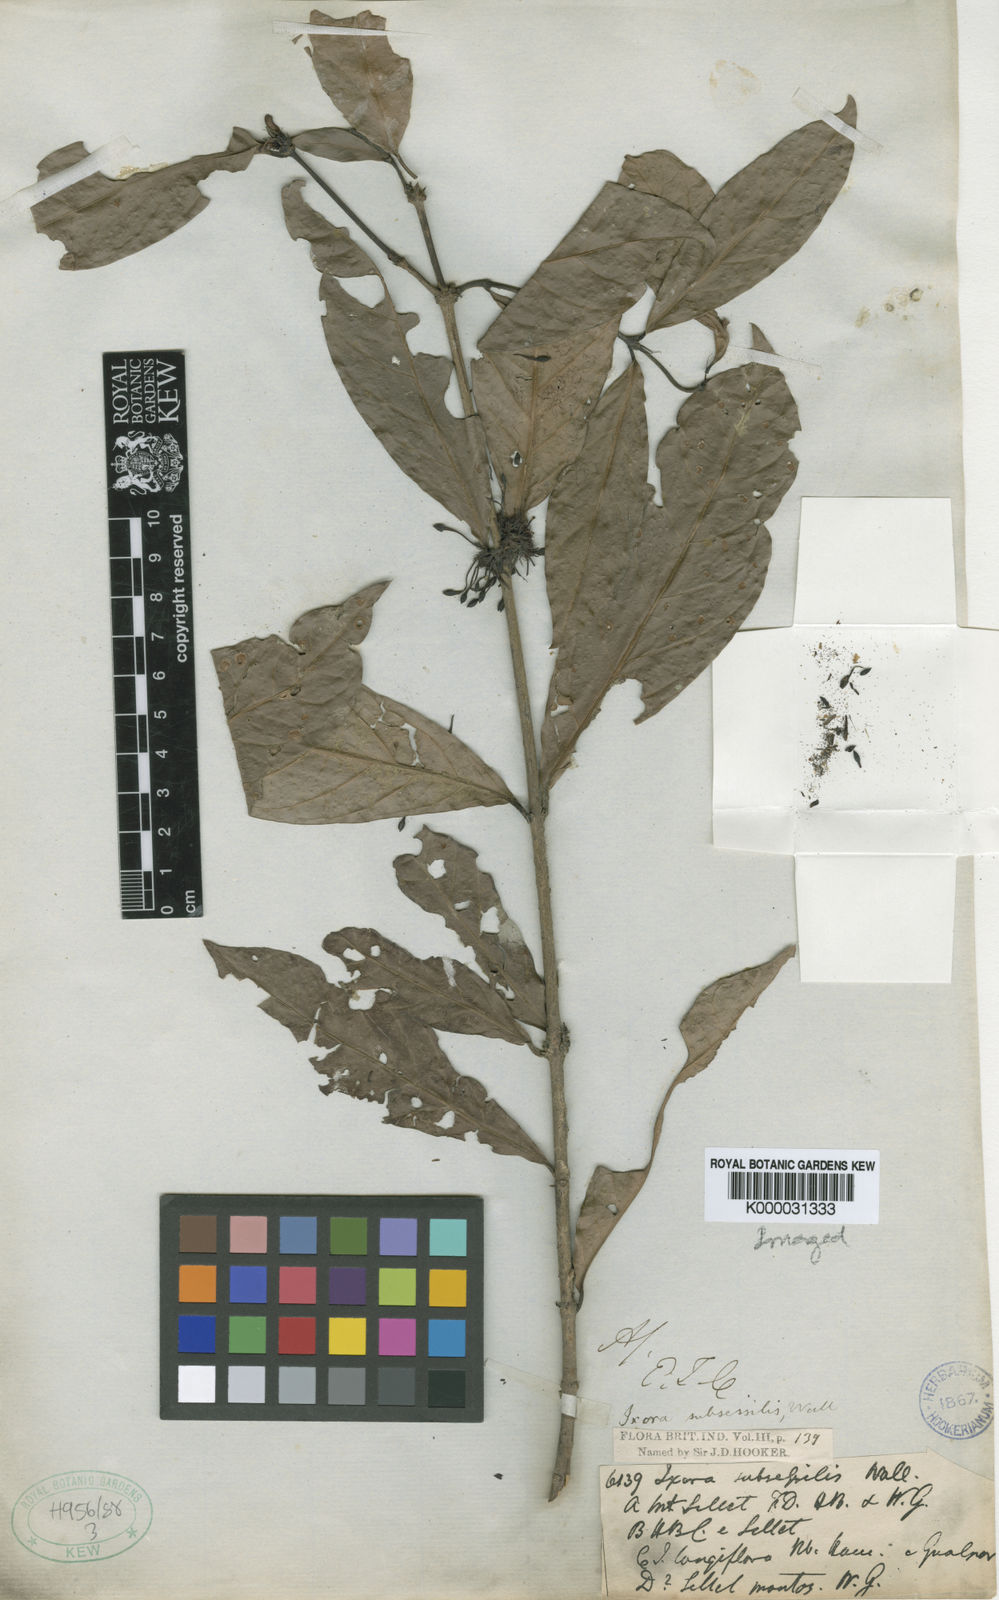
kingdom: Plantae
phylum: Tracheophyta
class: Magnoliopsida
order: Gentianales
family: Rubiaceae
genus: Ixora
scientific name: Ixora
